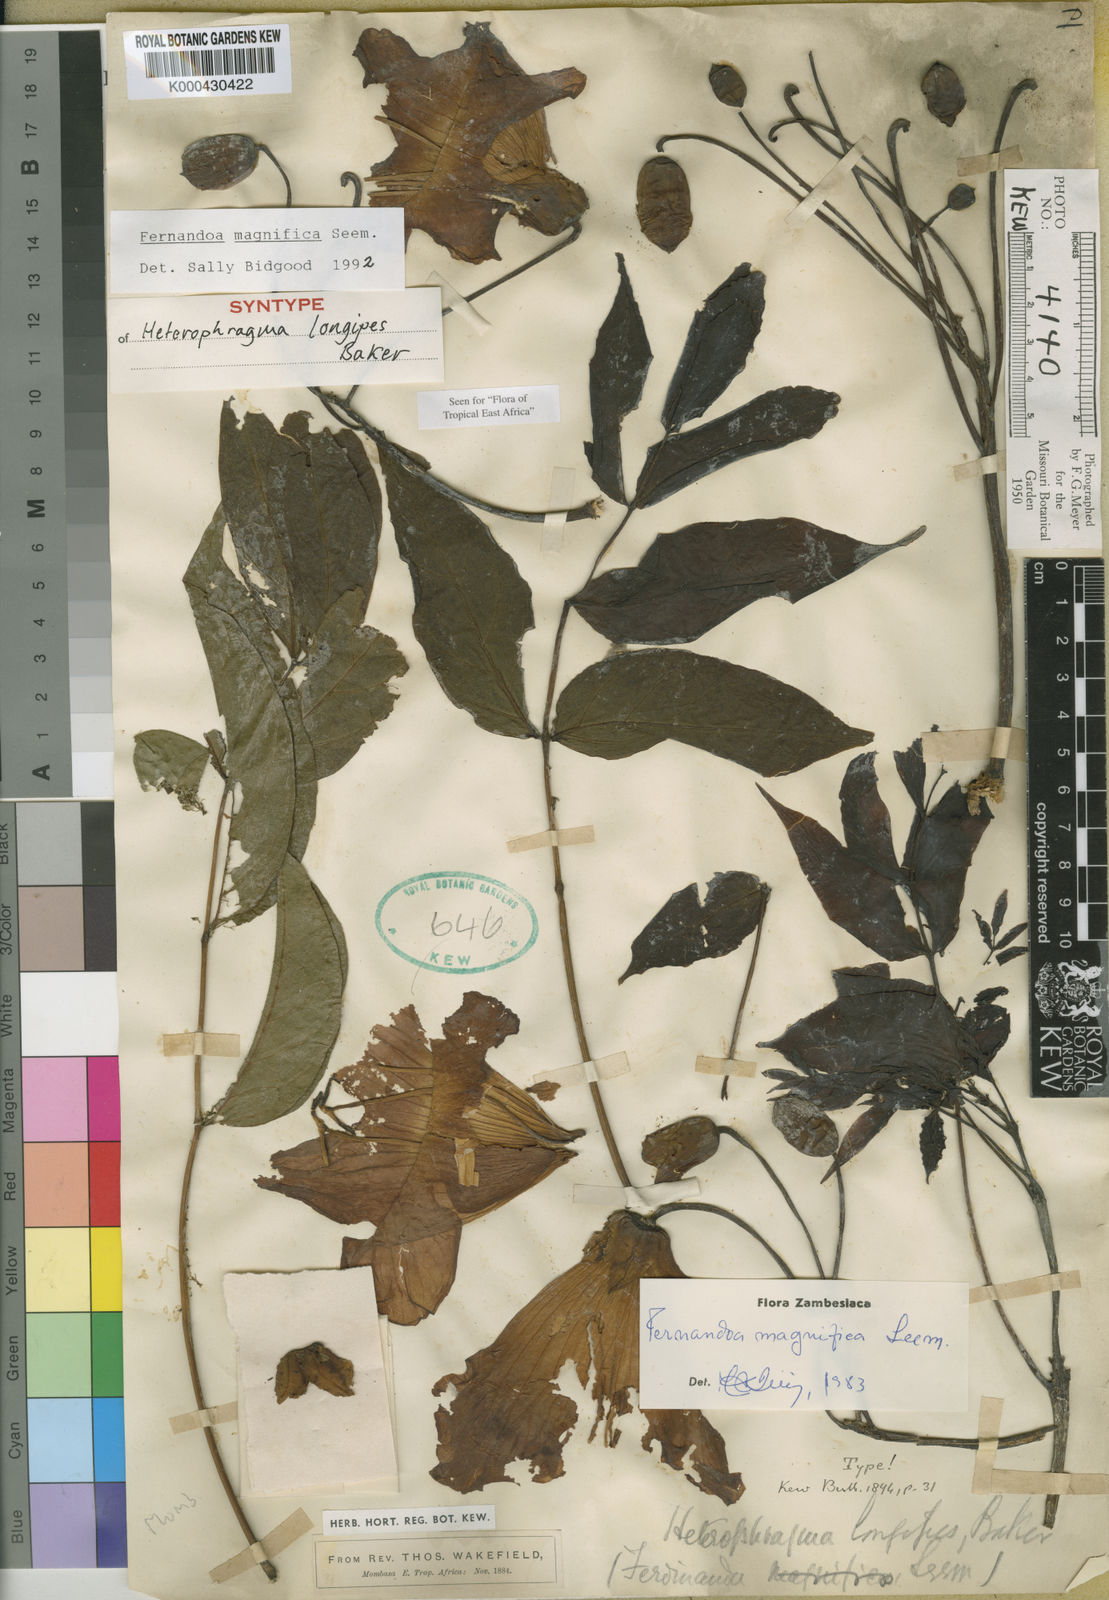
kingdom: Plantae
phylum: Tracheophyta
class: Magnoliopsida
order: Lamiales
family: Bignoniaceae
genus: Fernandoa
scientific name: Fernandoa magnifica
